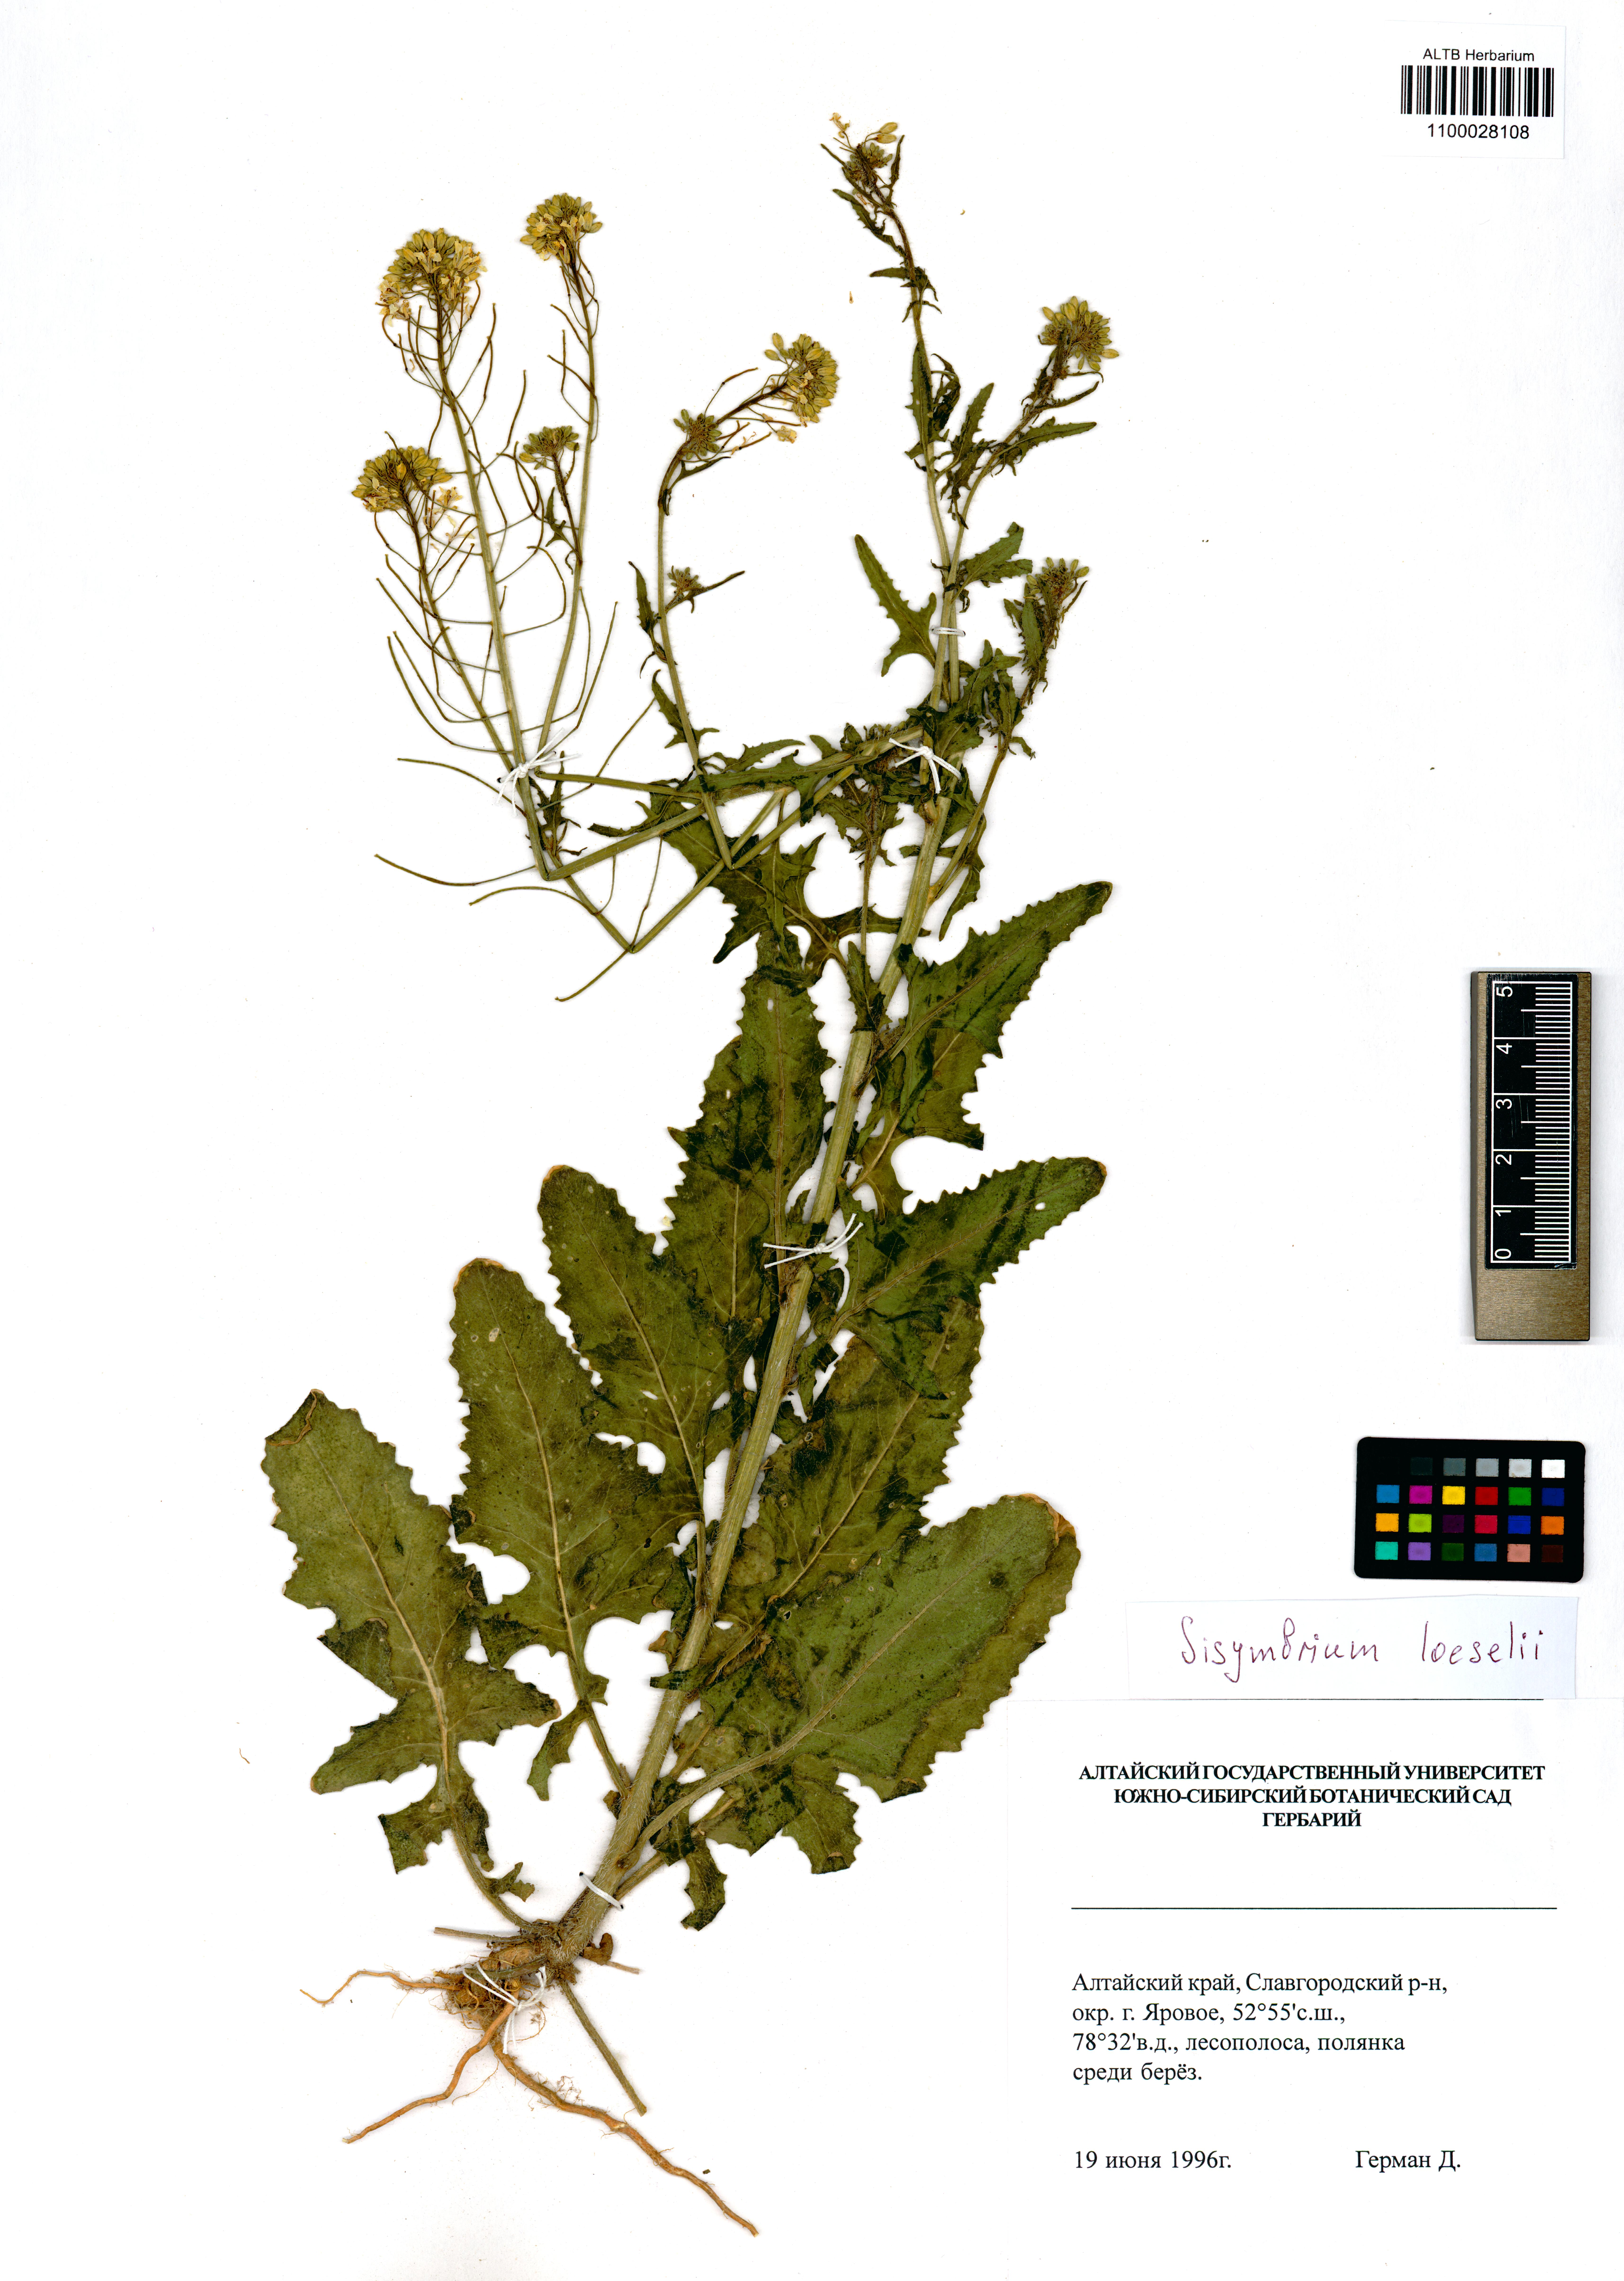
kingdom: Plantae
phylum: Tracheophyta
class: Magnoliopsida
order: Brassicales
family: Brassicaceae
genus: Sisymbrium
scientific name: Sisymbrium loeselii
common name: False london-rocket
